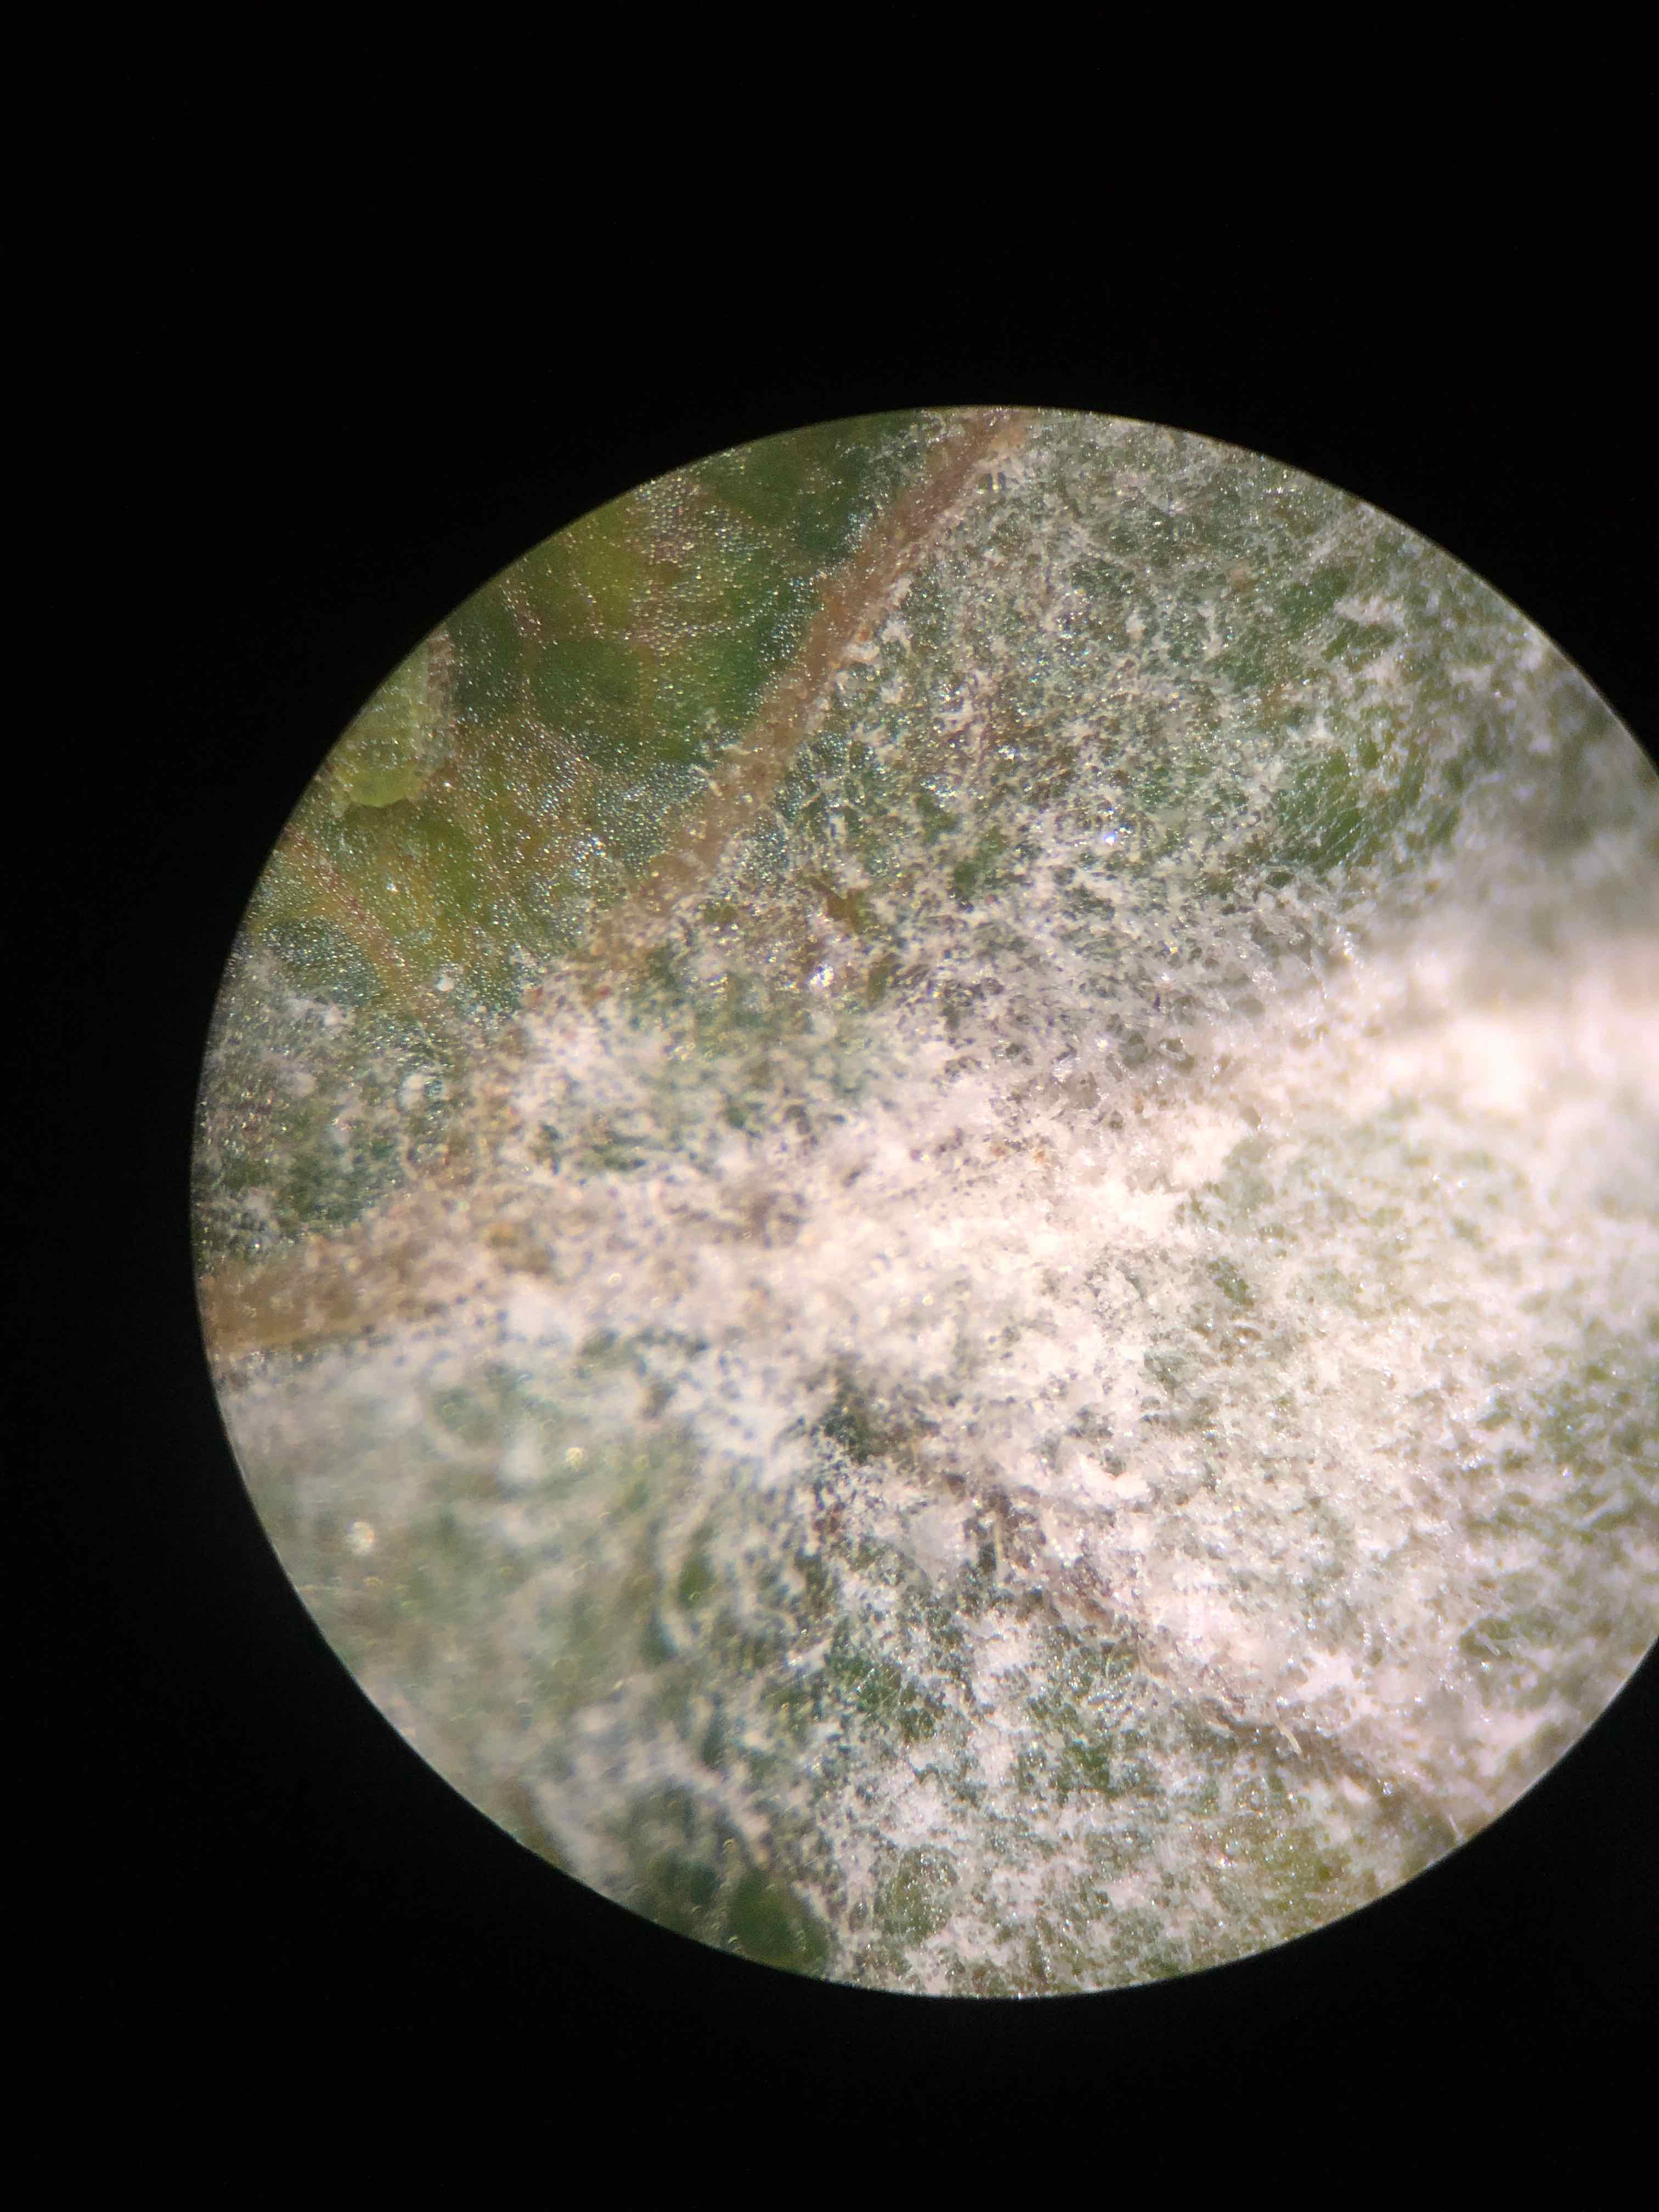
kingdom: Fungi
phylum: Ascomycota
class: Leotiomycetes
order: Helotiales
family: Erysiphaceae
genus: Sawadaea
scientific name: Sawadaea bicornis
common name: Maple mildew
